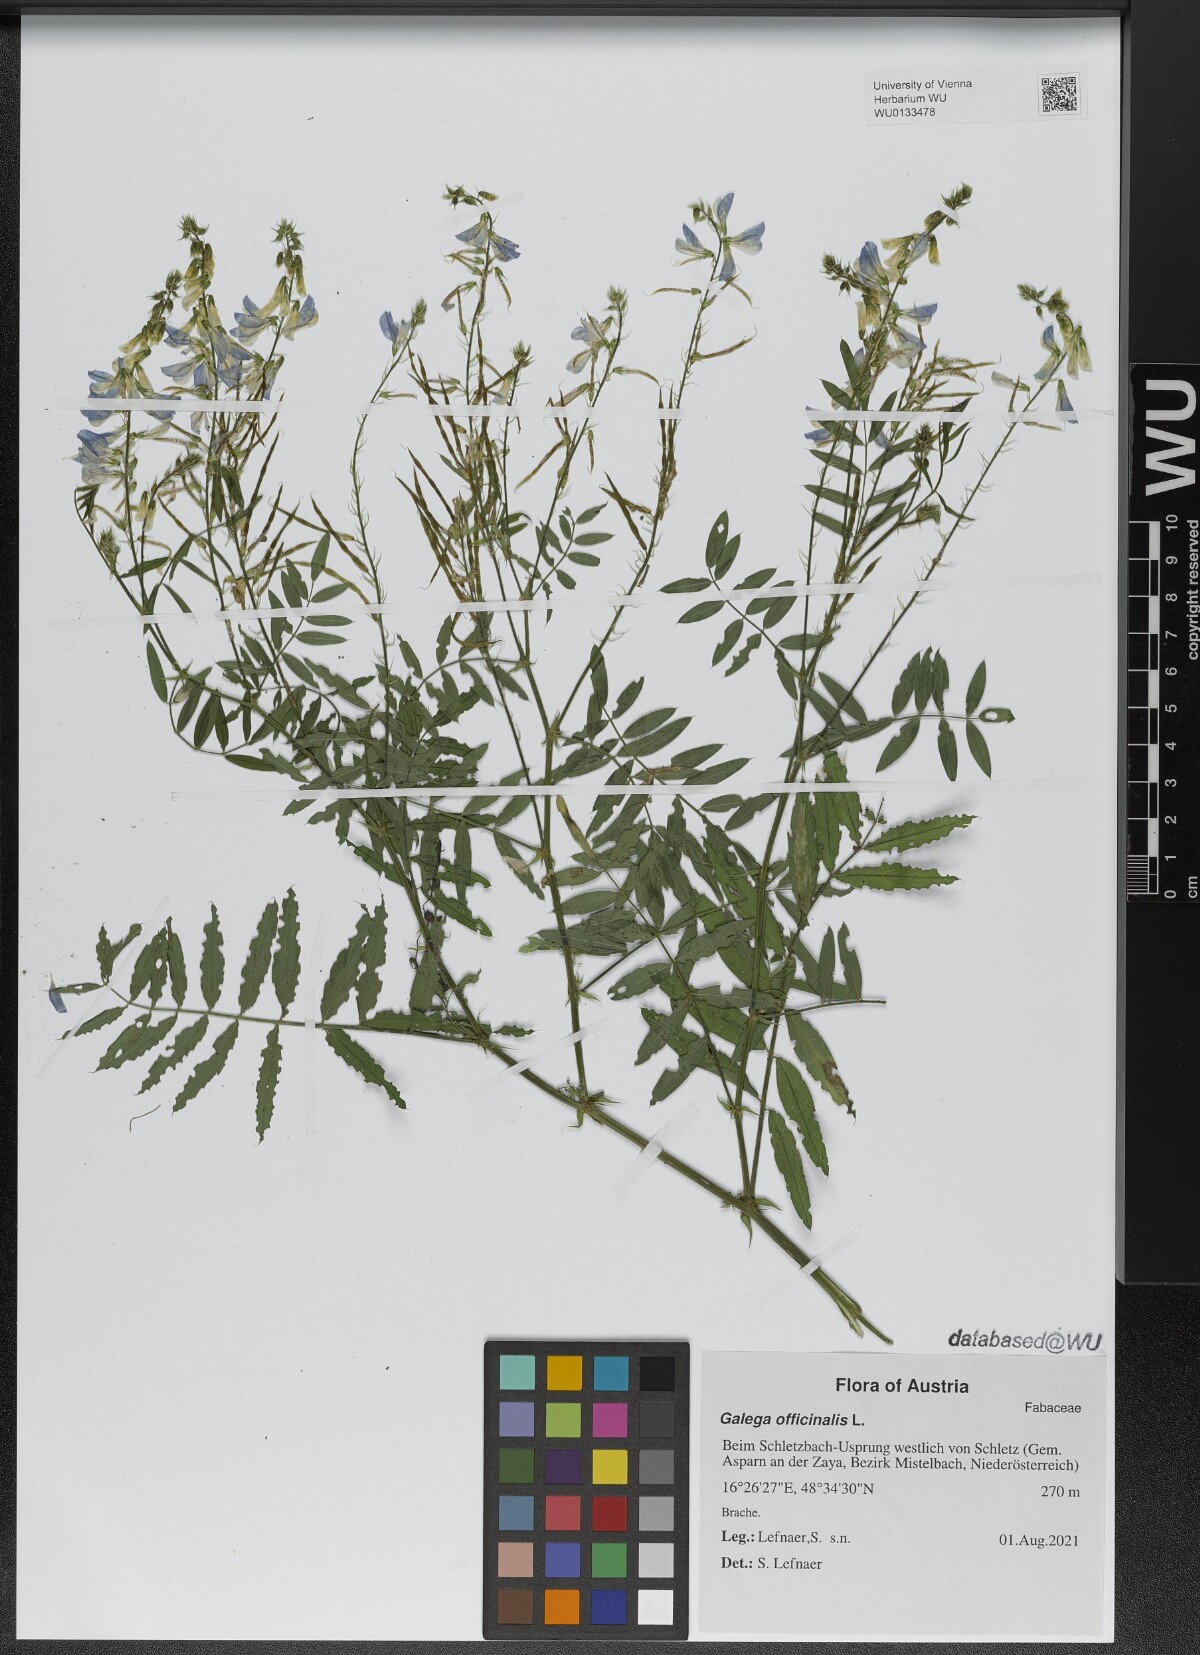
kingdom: Plantae
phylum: Tracheophyta
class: Magnoliopsida
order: Fabales
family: Fabaceae
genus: Galega
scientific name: Galega officinalis
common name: Goat's-rue
